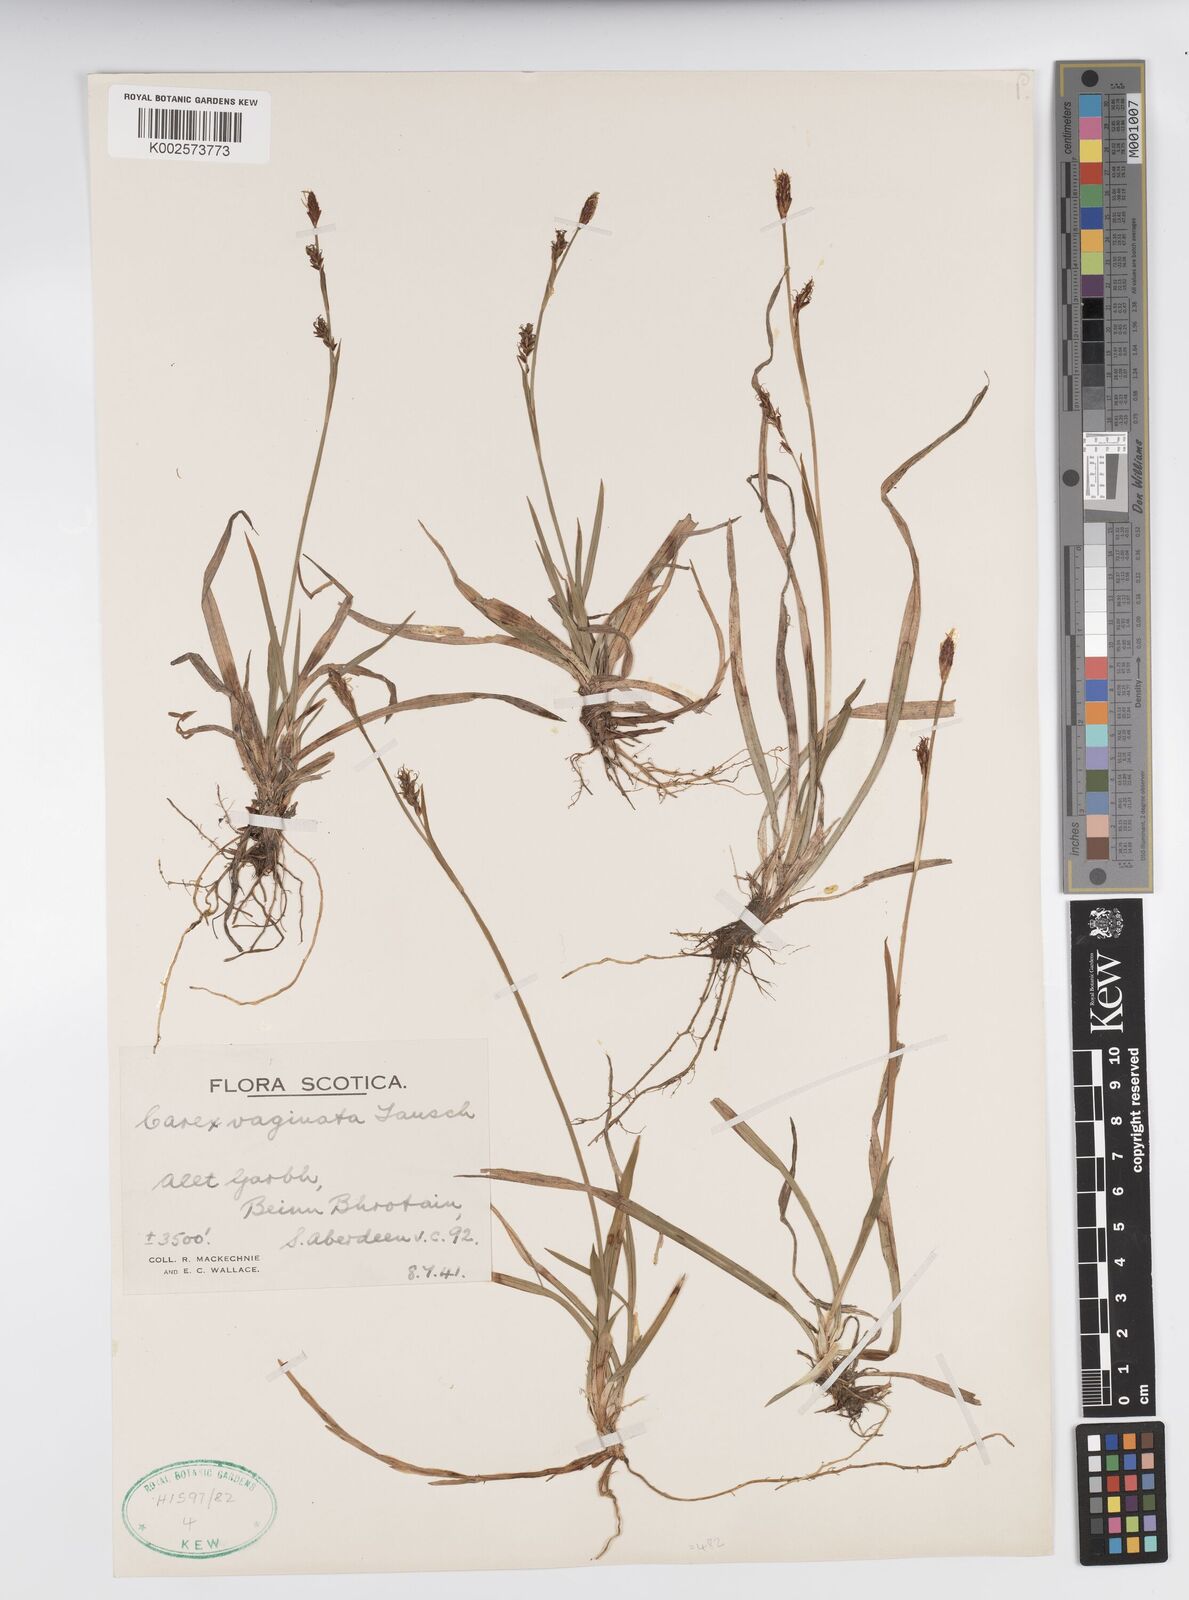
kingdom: Plantae
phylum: Tracheophyta
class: Liliopsida
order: Poales
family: Cyperaceae
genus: Carex
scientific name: Carex vaginata
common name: Sheathed sedge
